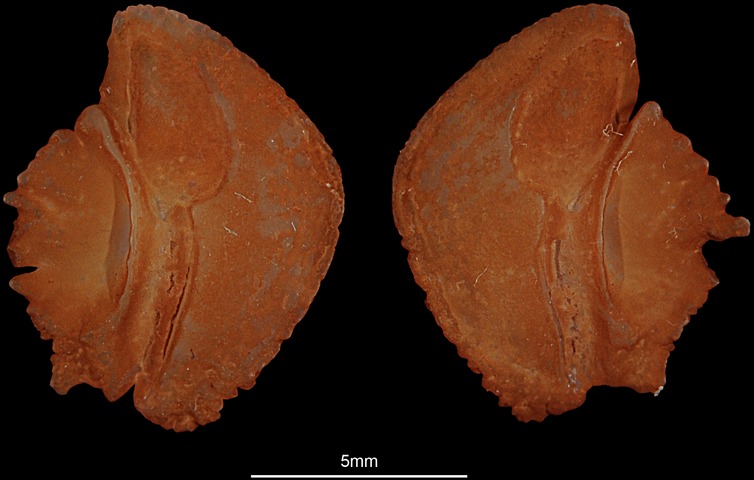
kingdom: Animalia
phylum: Chordata
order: Perciformes
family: Ambassidae
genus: Parambassis
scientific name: Parambassis wolffii
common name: Duskyfin glassy perchlet
